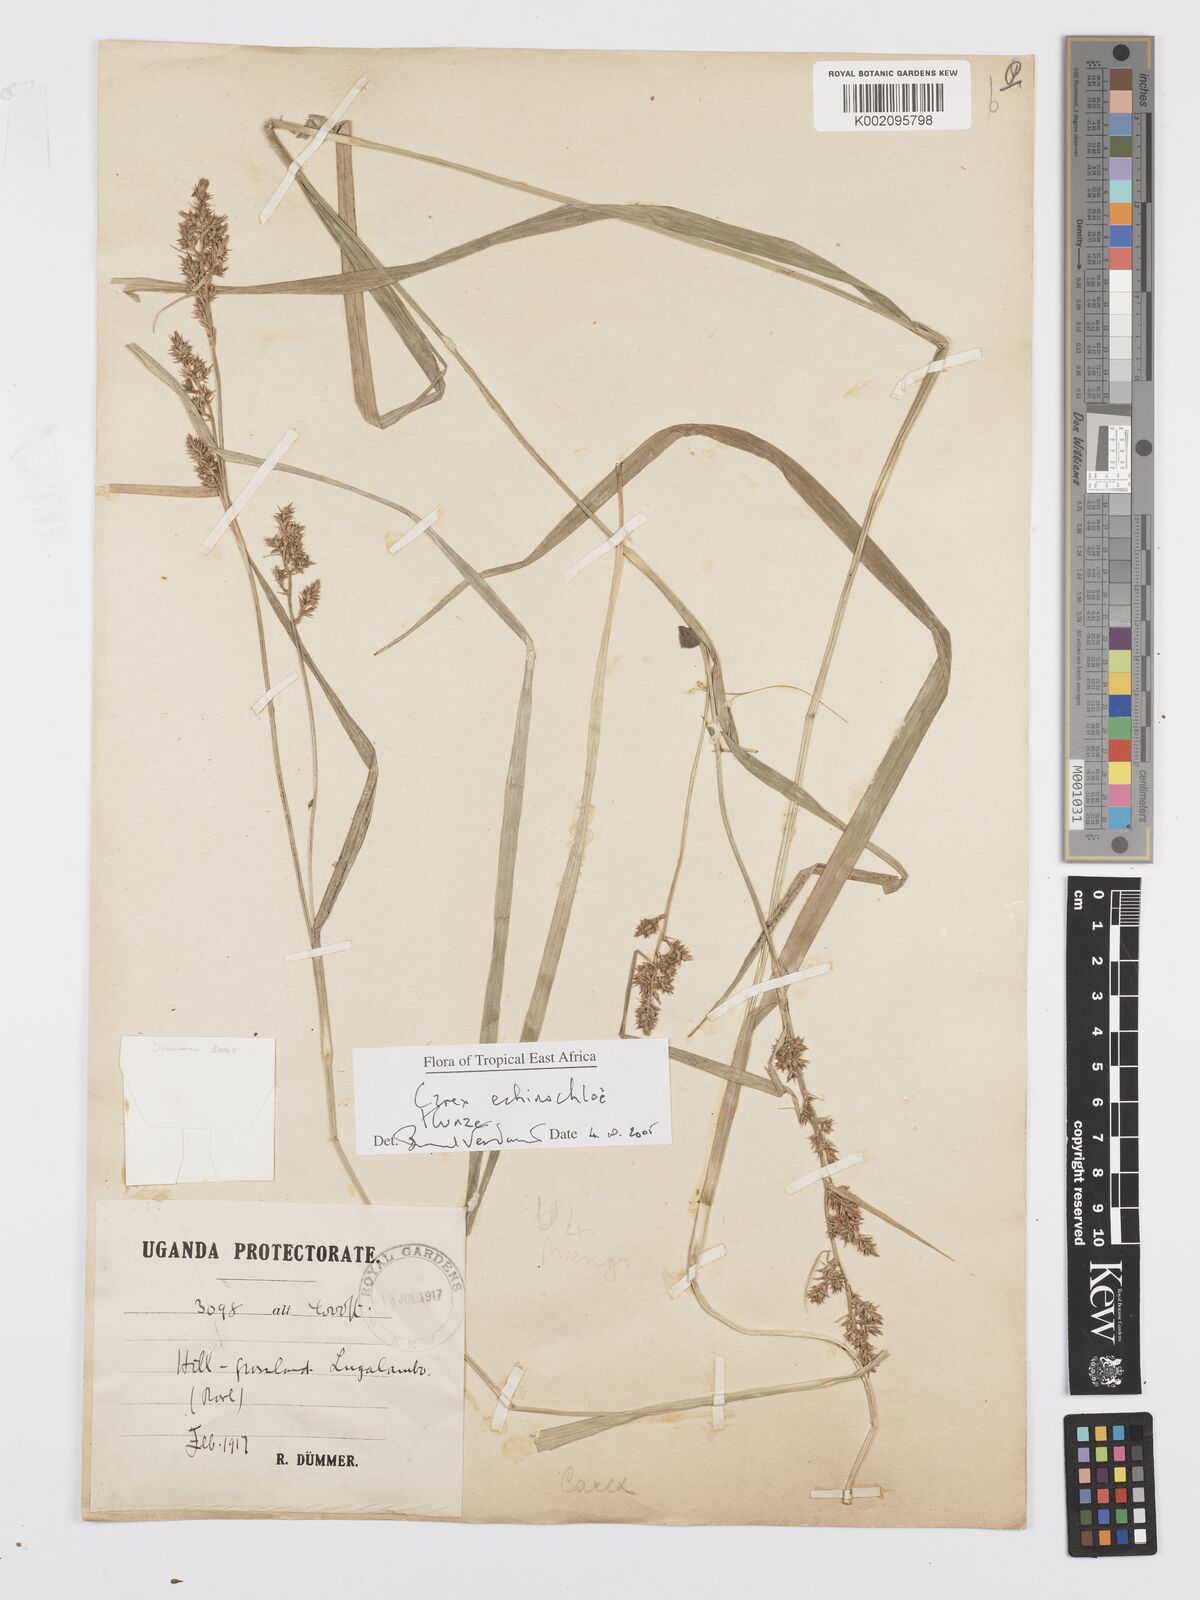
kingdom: Plantae
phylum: Tracheophyta
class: Liliopsida
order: Poales
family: Cyperaceae
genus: Carex
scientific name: Carex echinochloe
